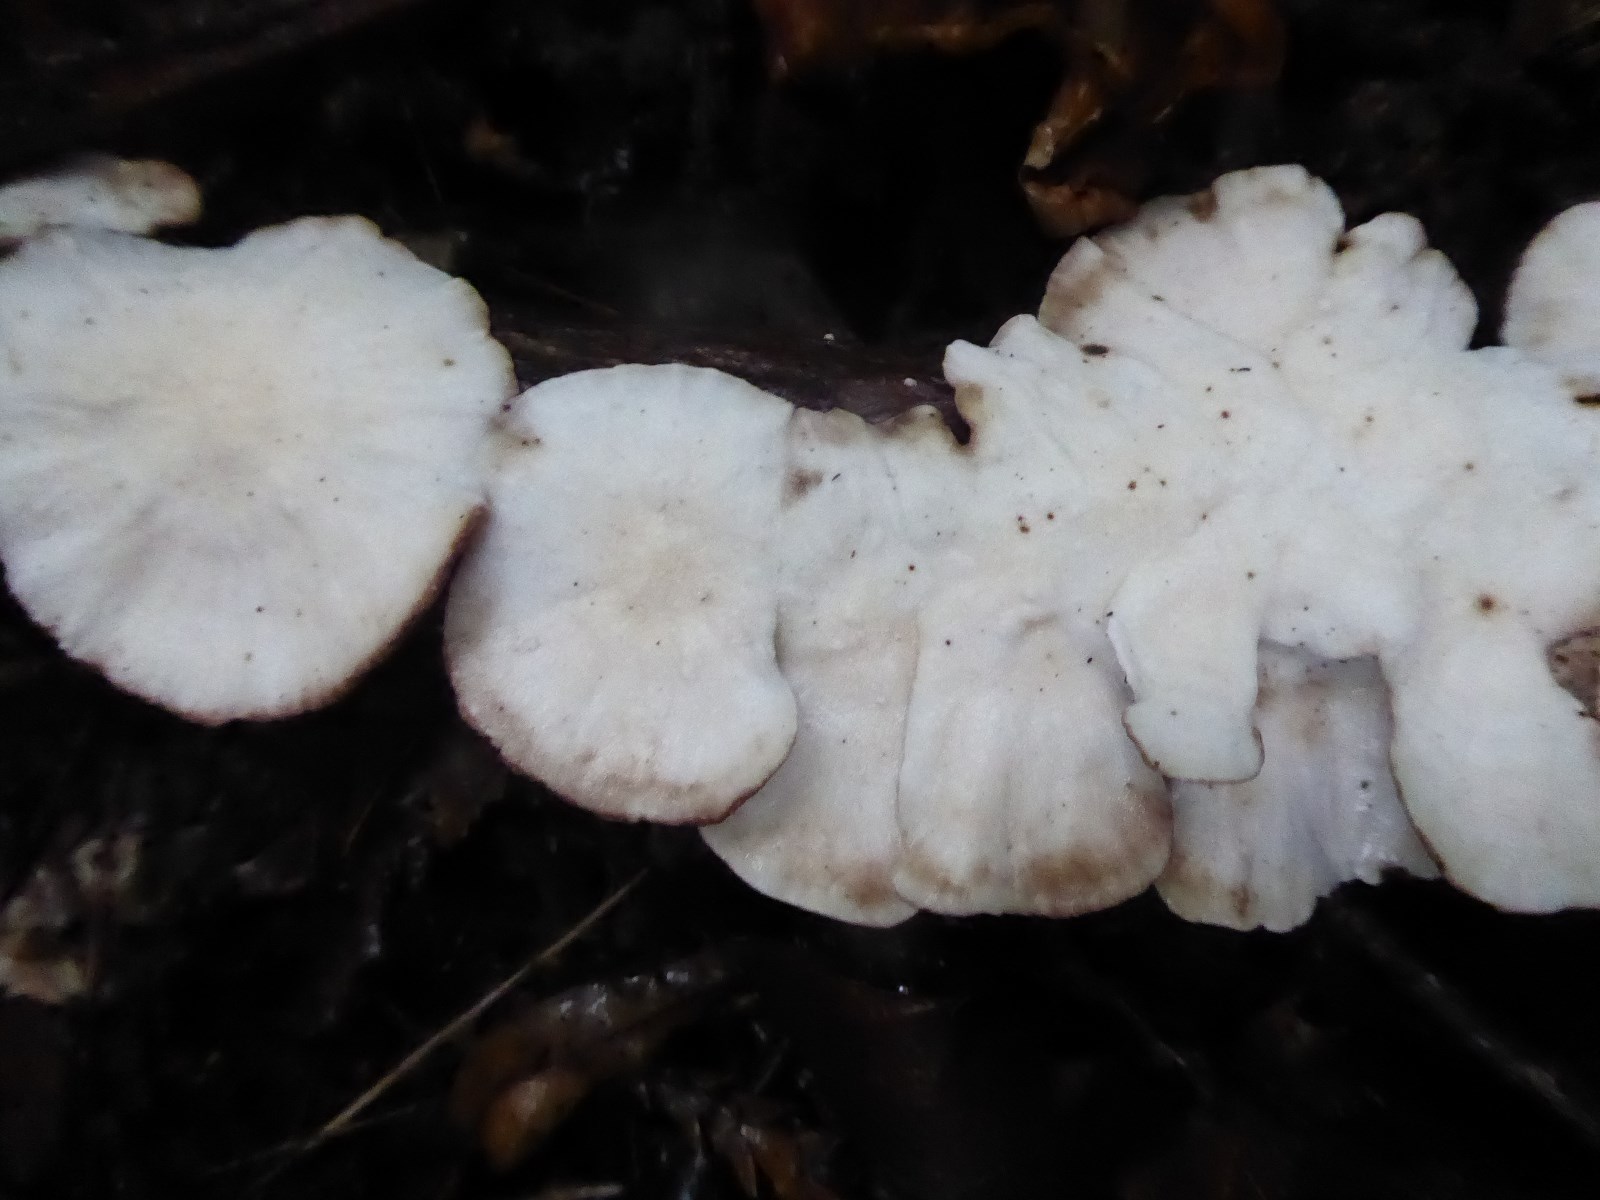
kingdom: Fungi
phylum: Basidiomycota
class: Agaricomycetes
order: Polyporales
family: Polyporaceae
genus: Trametes
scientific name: Trametes versicolor
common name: broget læderporesvamp
